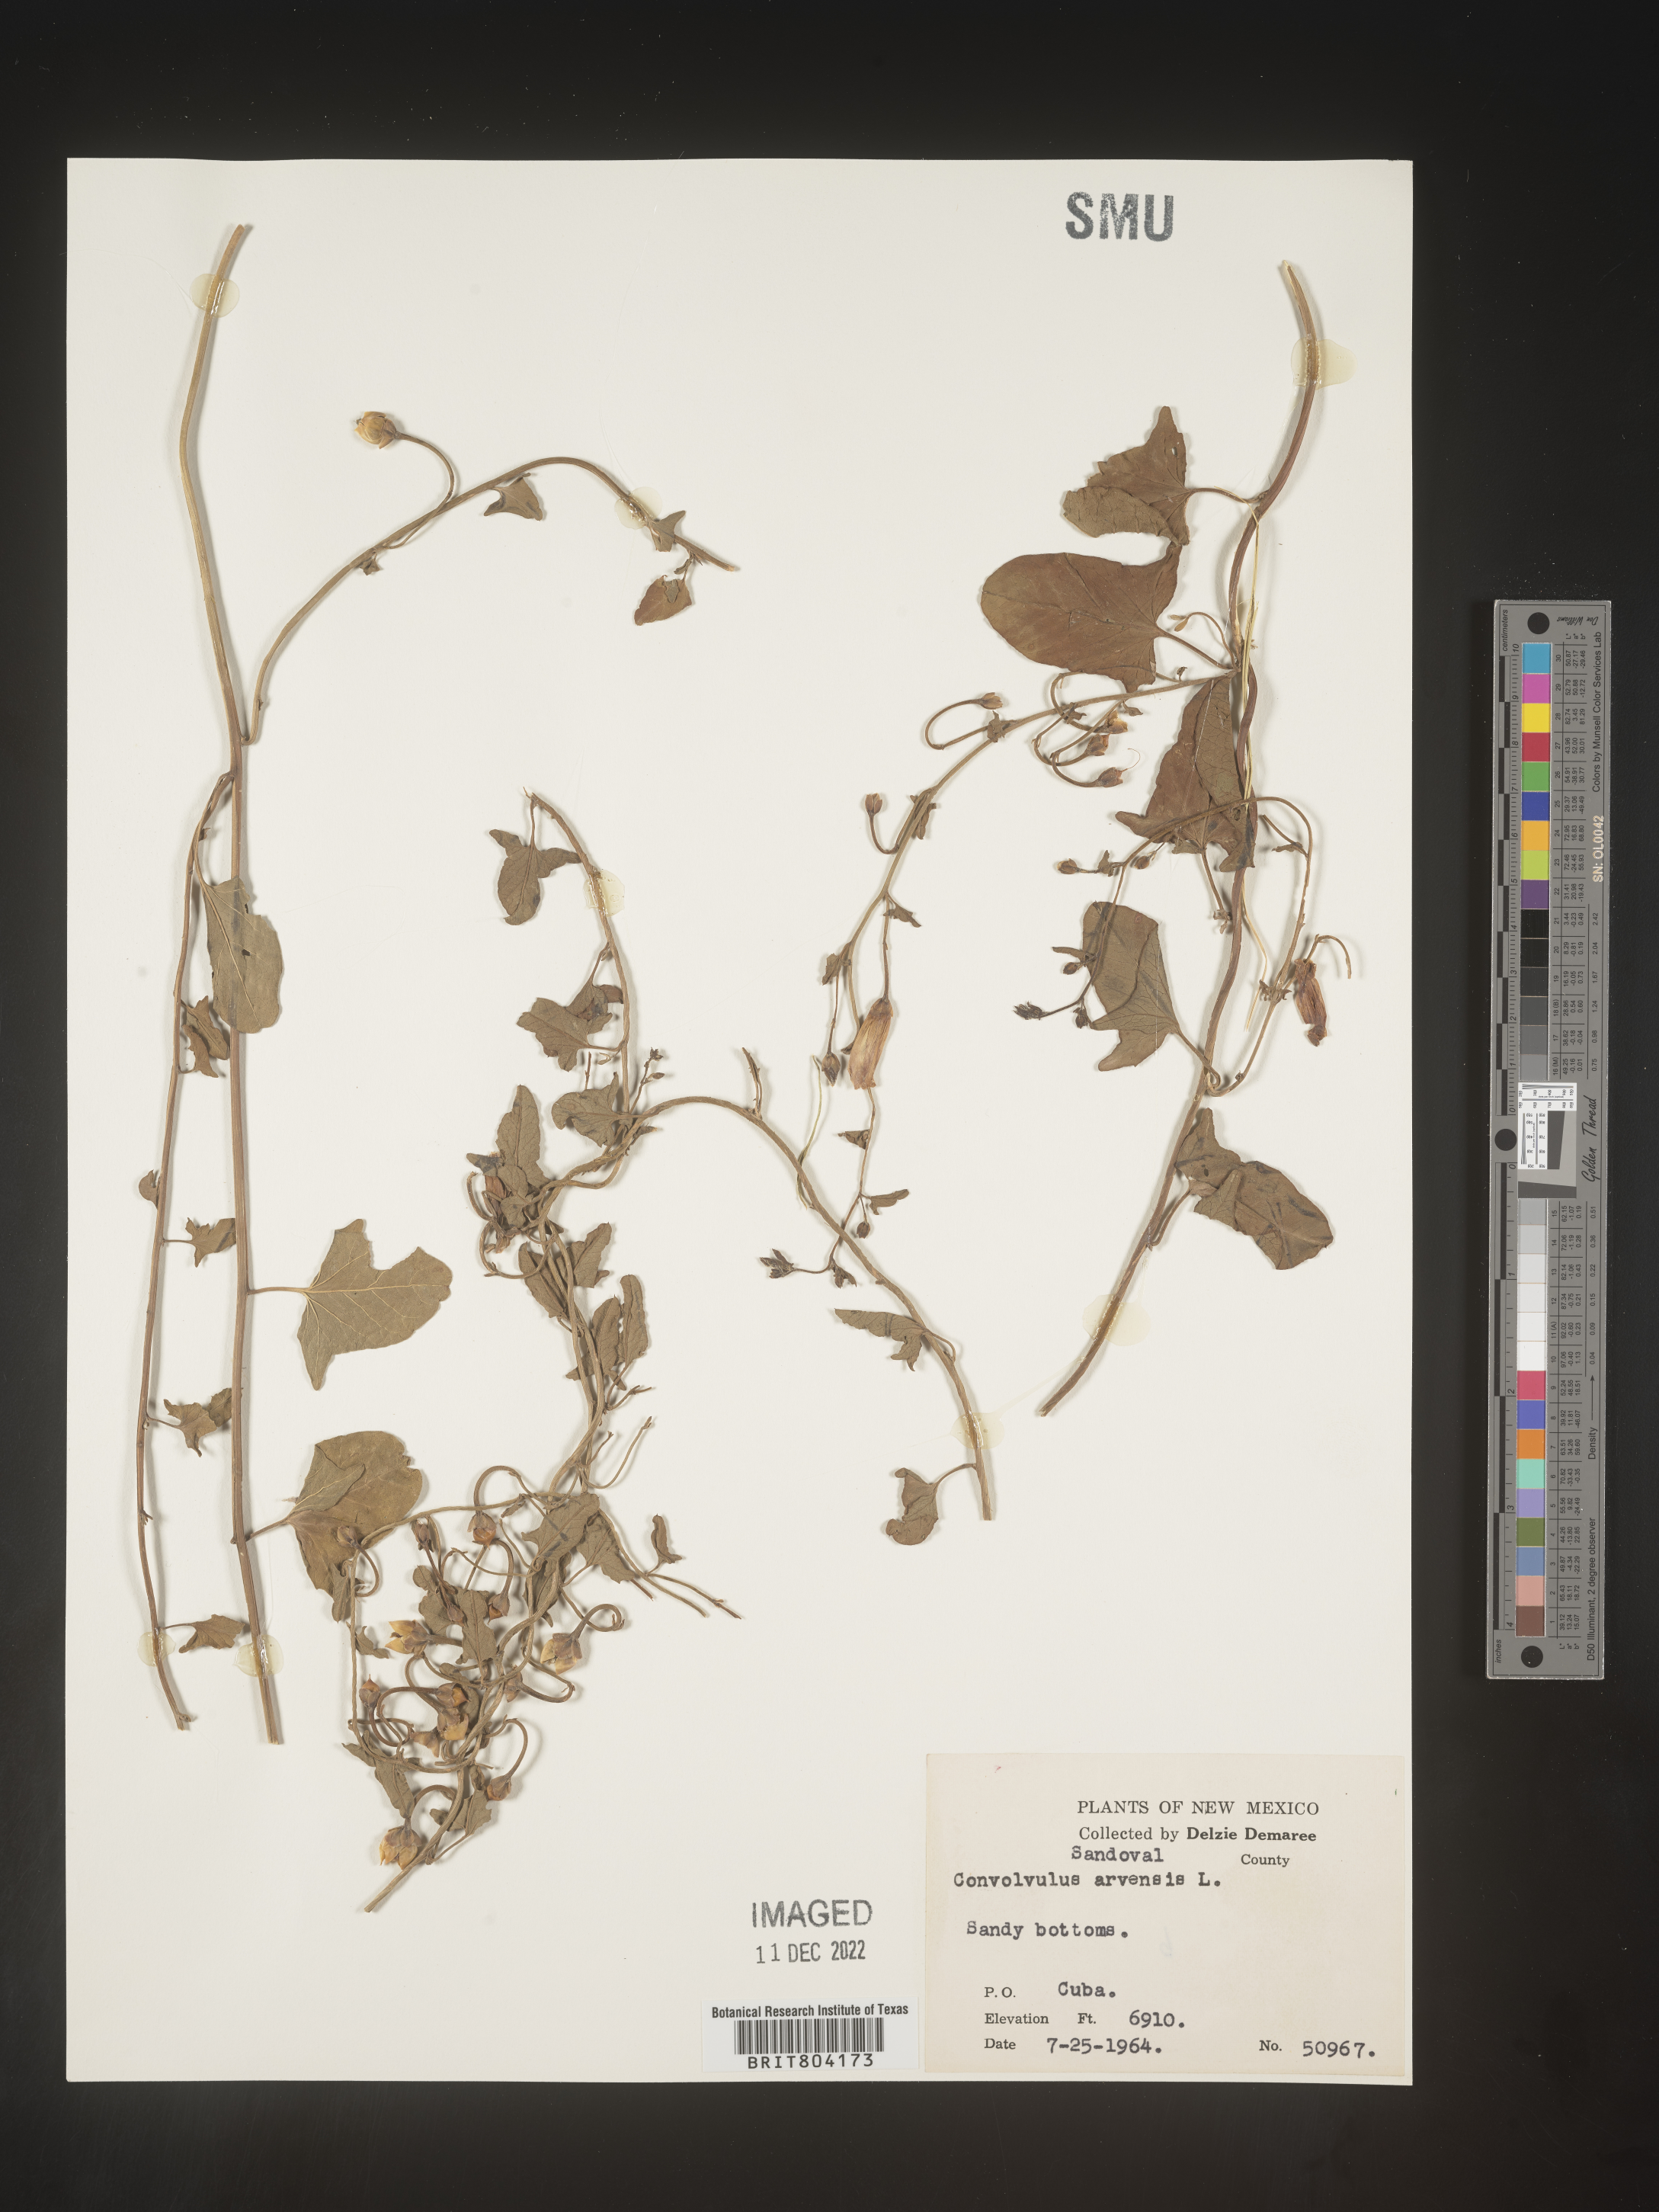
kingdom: Plantae
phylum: Tracheophyta
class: Magnoliopsida
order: Solanales
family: Convolvulaceae
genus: Convolvulus
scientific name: Convolvulus arvensis
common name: Field bindweed
